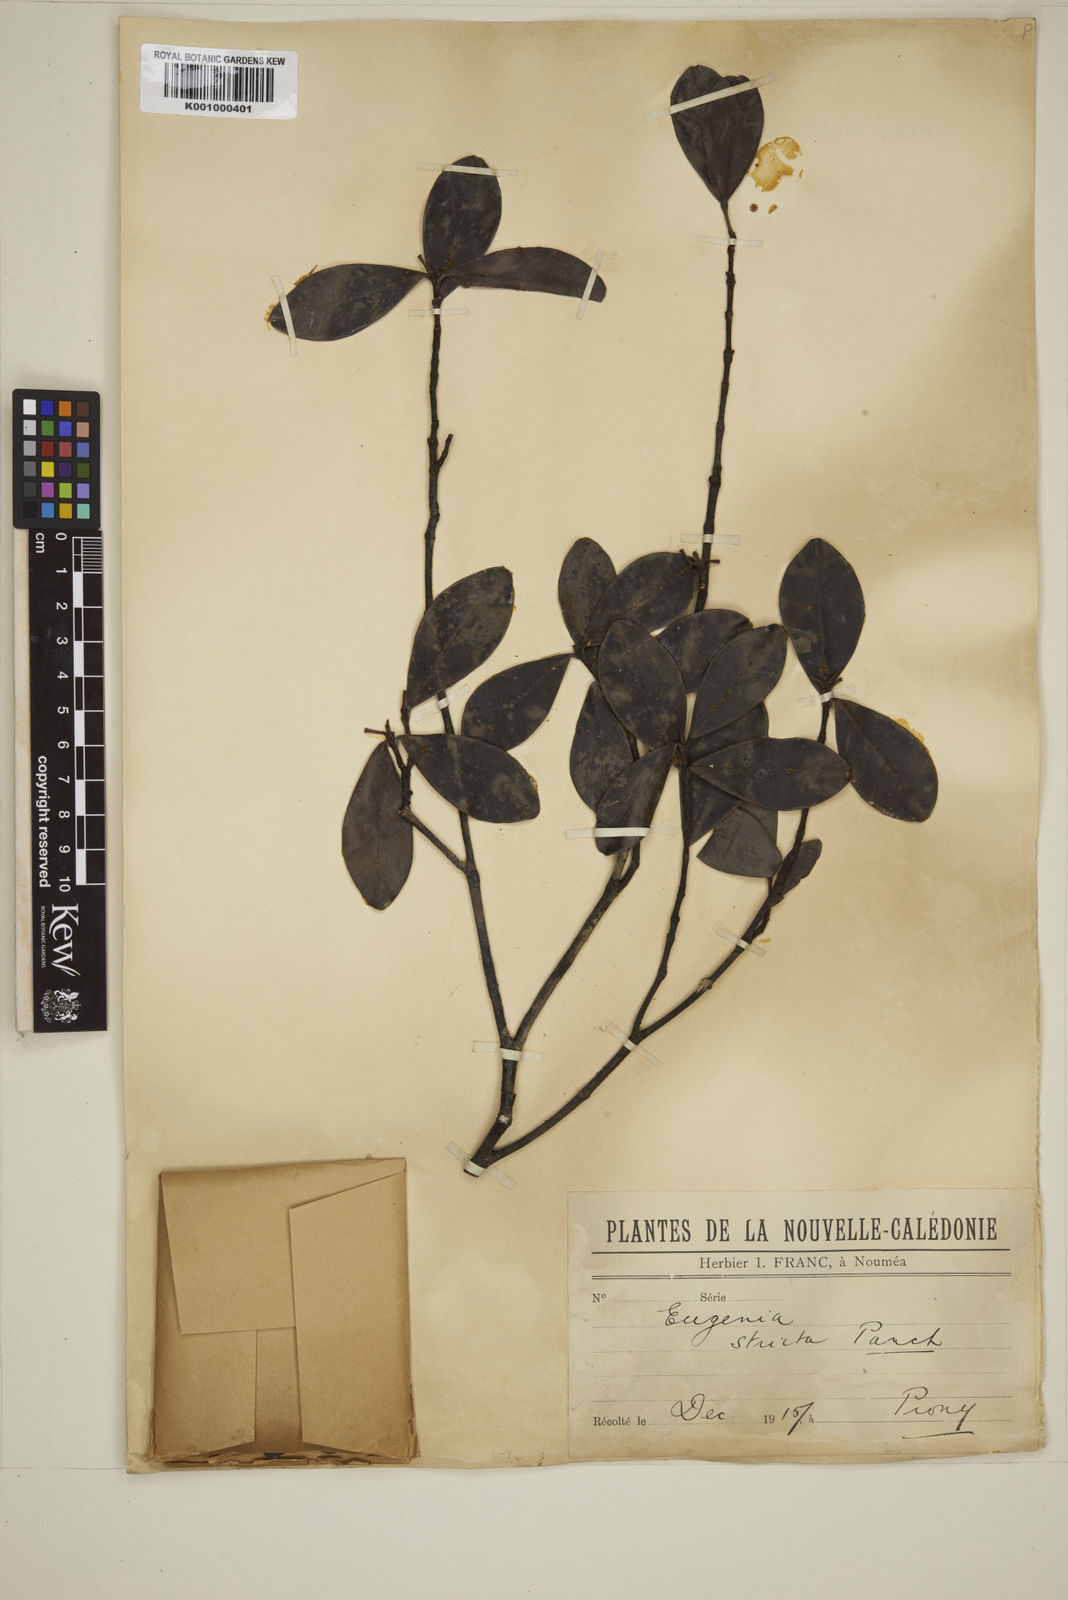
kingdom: Plantae
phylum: Tracheophyta
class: Magnoliopsida
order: Myrtales
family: Myrtaceae
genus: Austromyrtus
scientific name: Austromyrtus stricta
